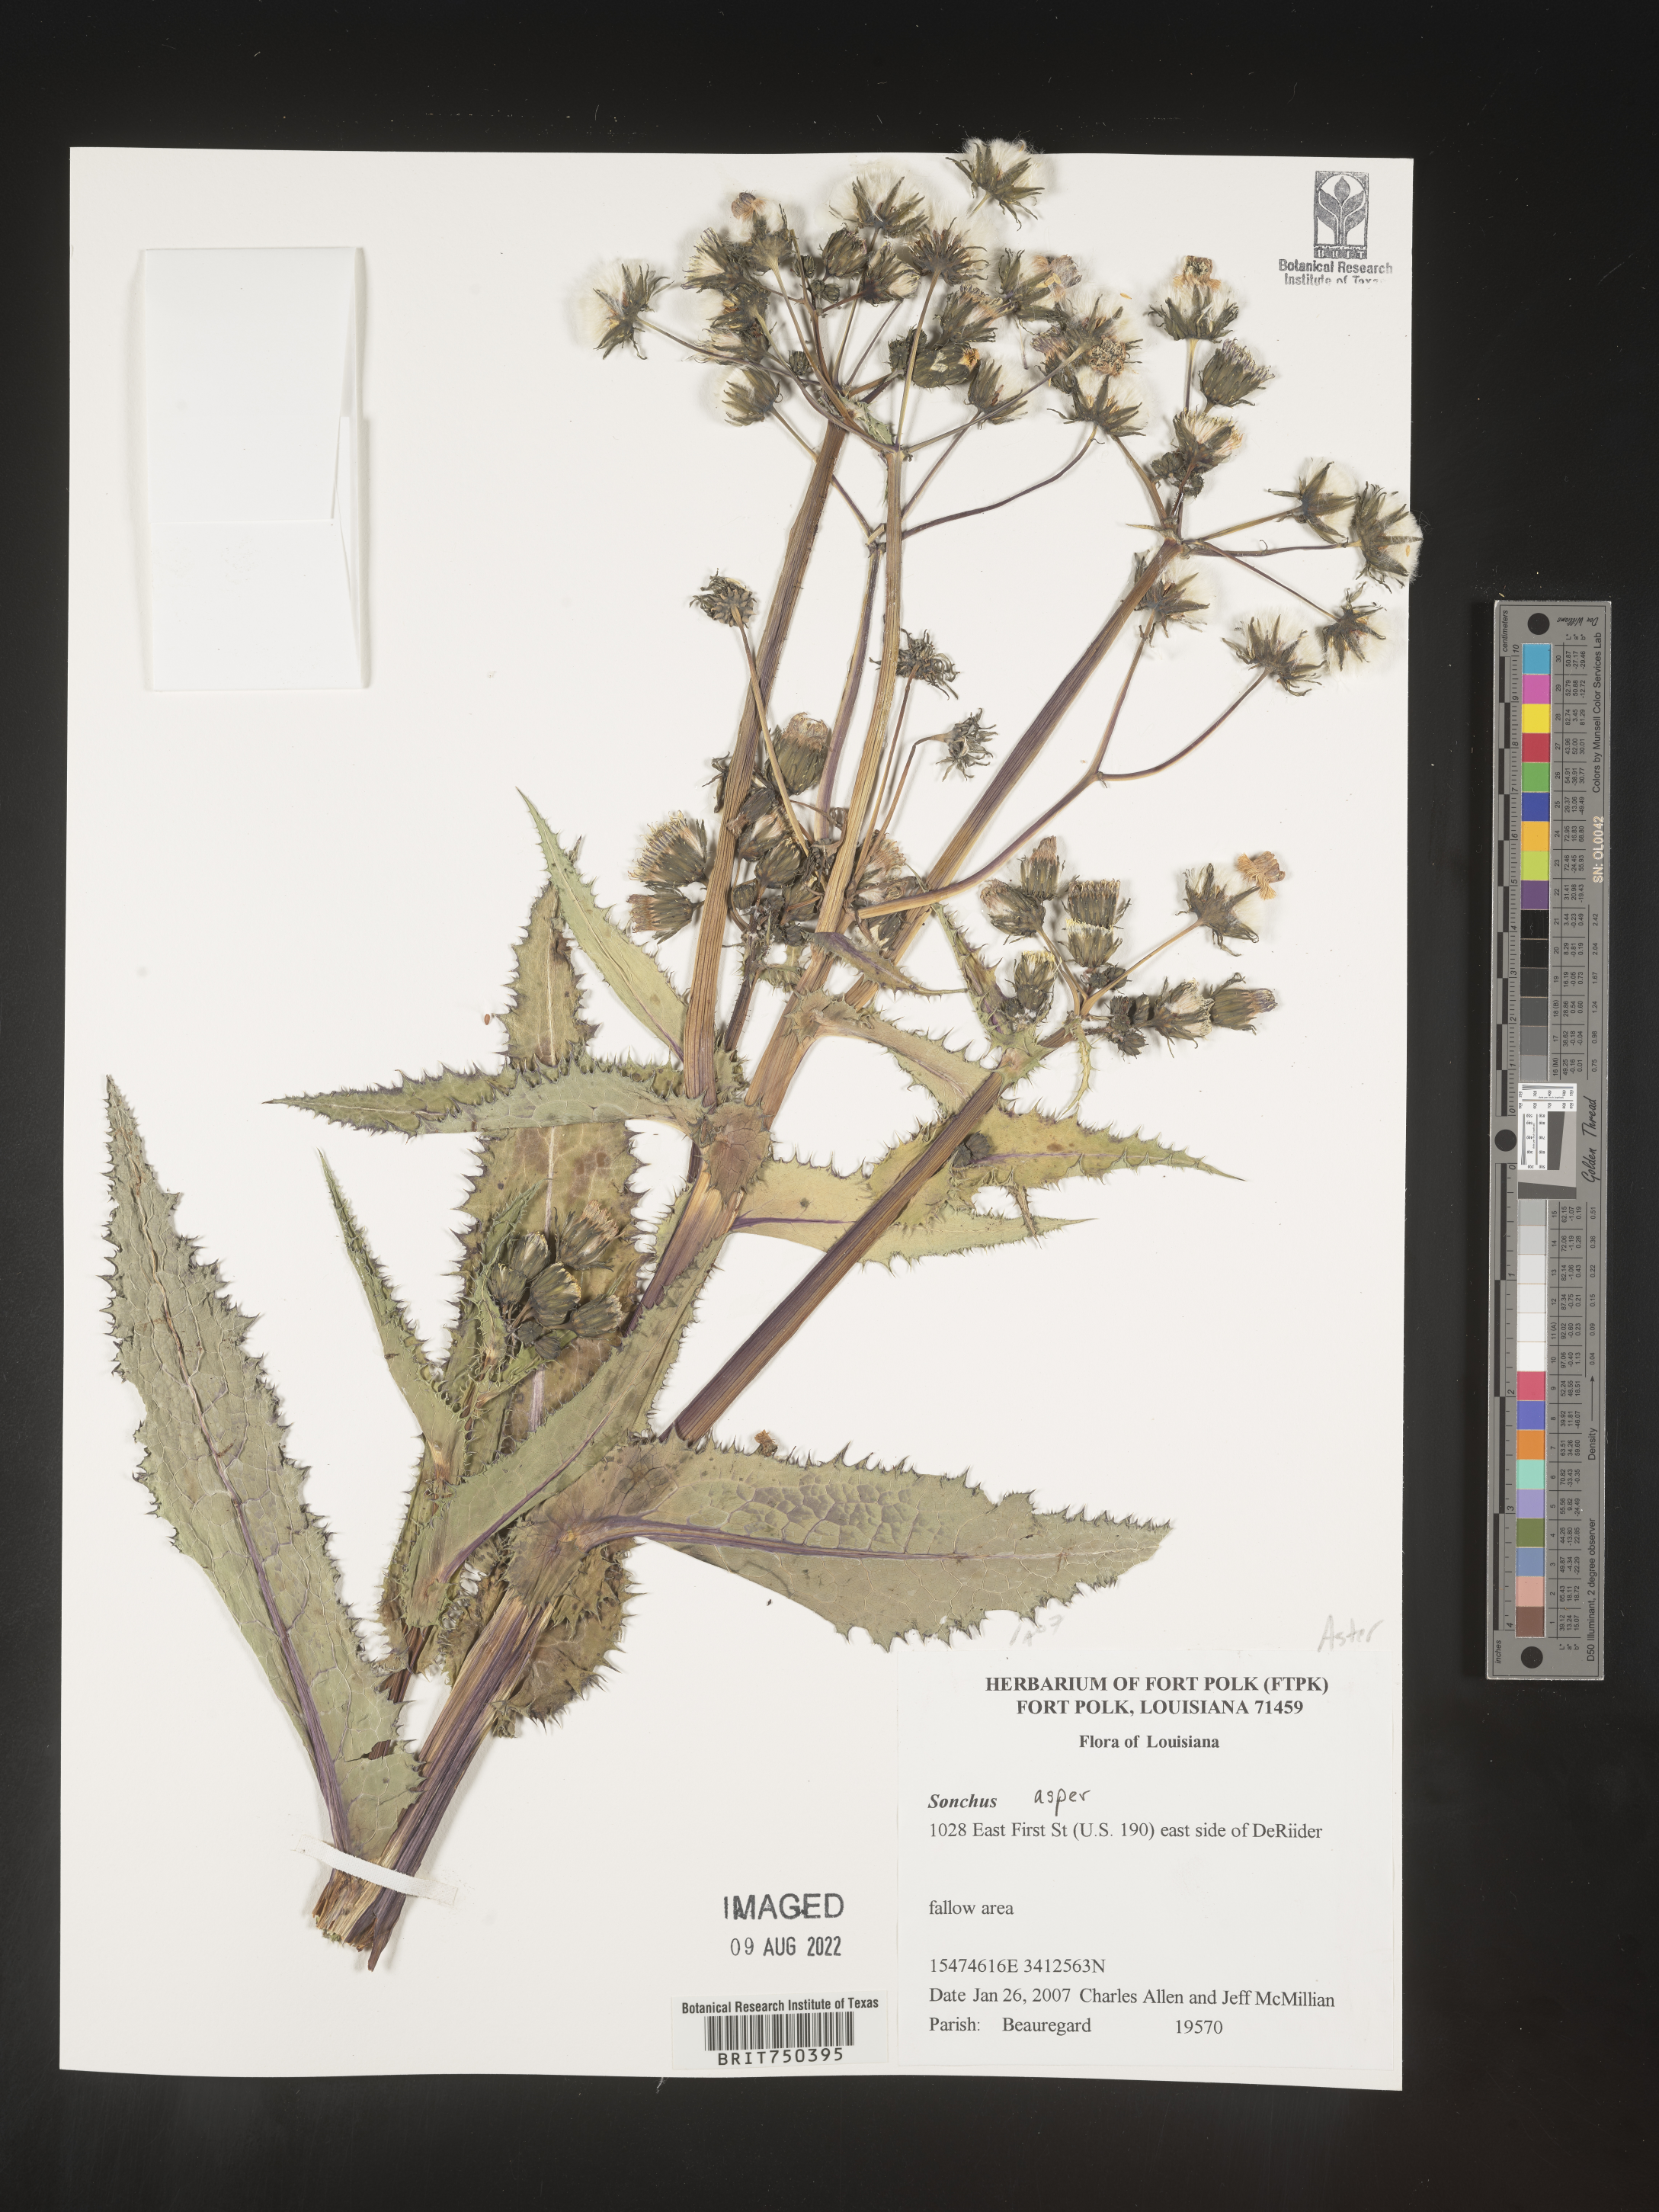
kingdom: Plantae
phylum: Tracheophyta
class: Magnoliopsida
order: Asterales
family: Asteraceae
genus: Sonchus
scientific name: Sonchus asper
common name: Prickly sow-thistle
